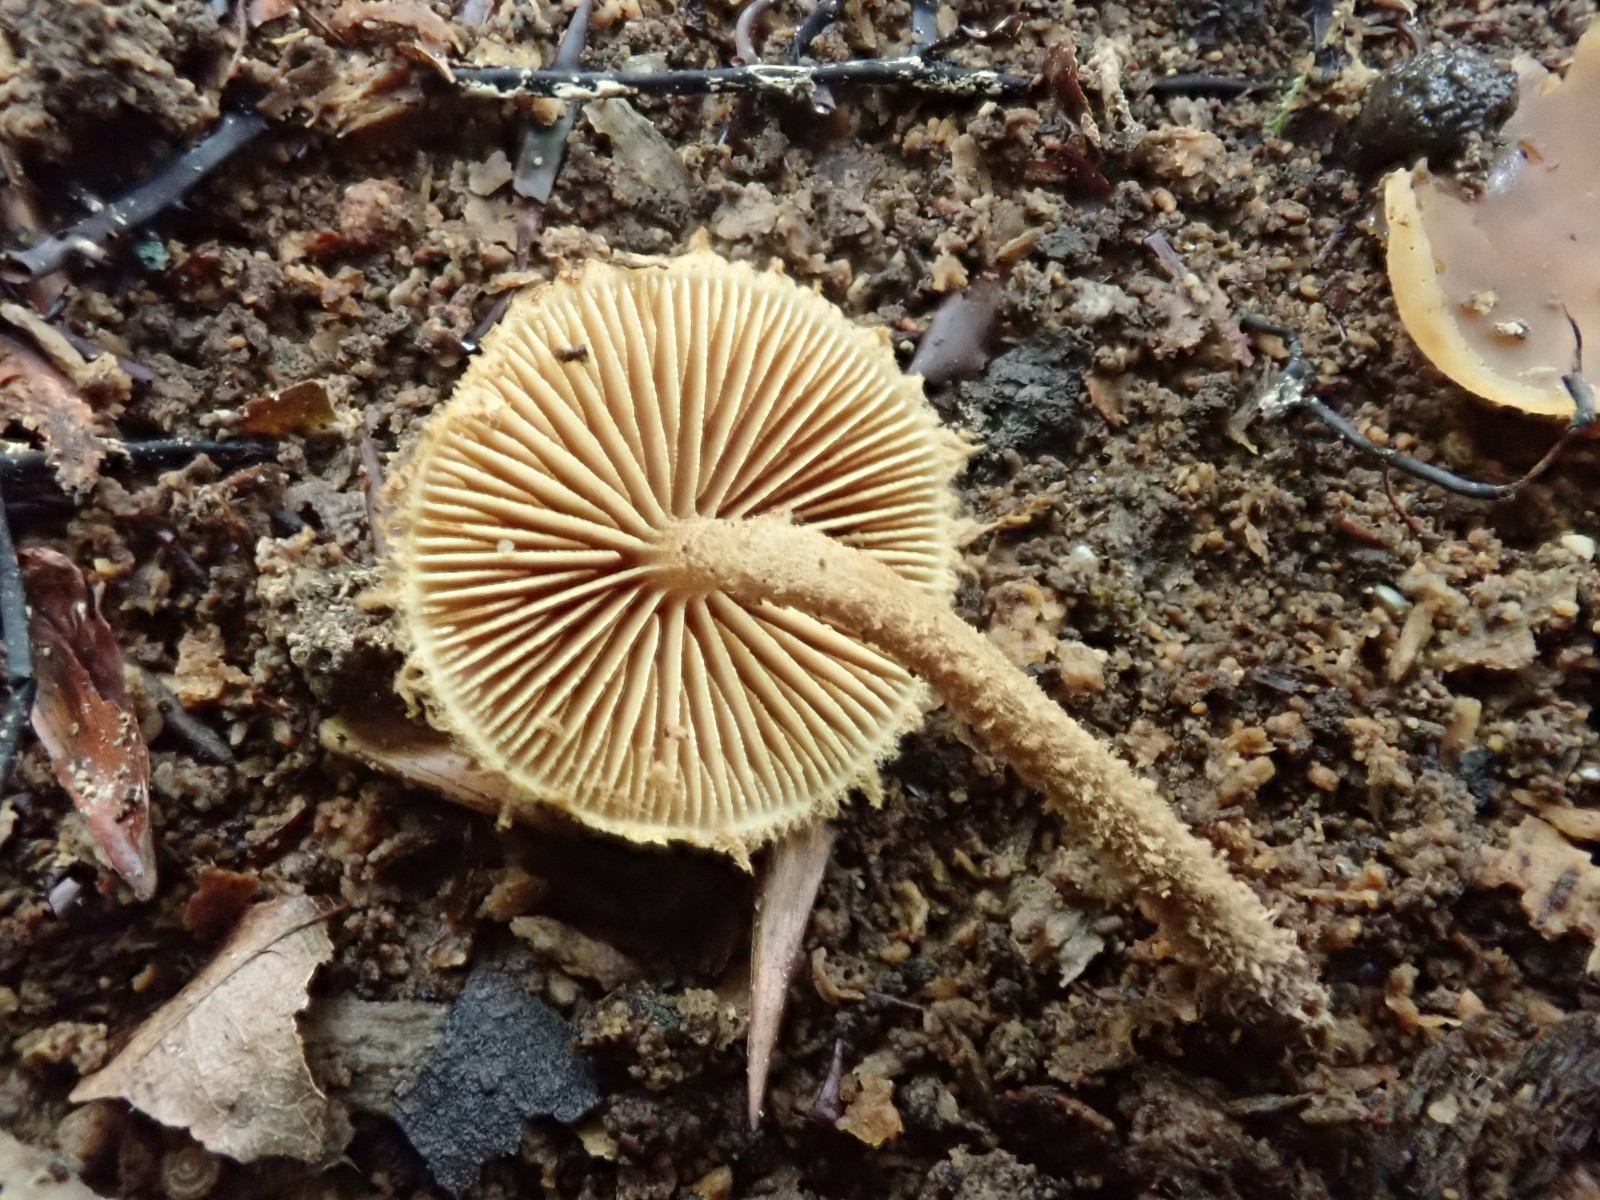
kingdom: Fungi
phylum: Basidiomycota
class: Agaricomycetes
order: Agaricales
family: Tubariaceae
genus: Flammulaster
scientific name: Flammulaster muricatus
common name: pigget grynskælhat
